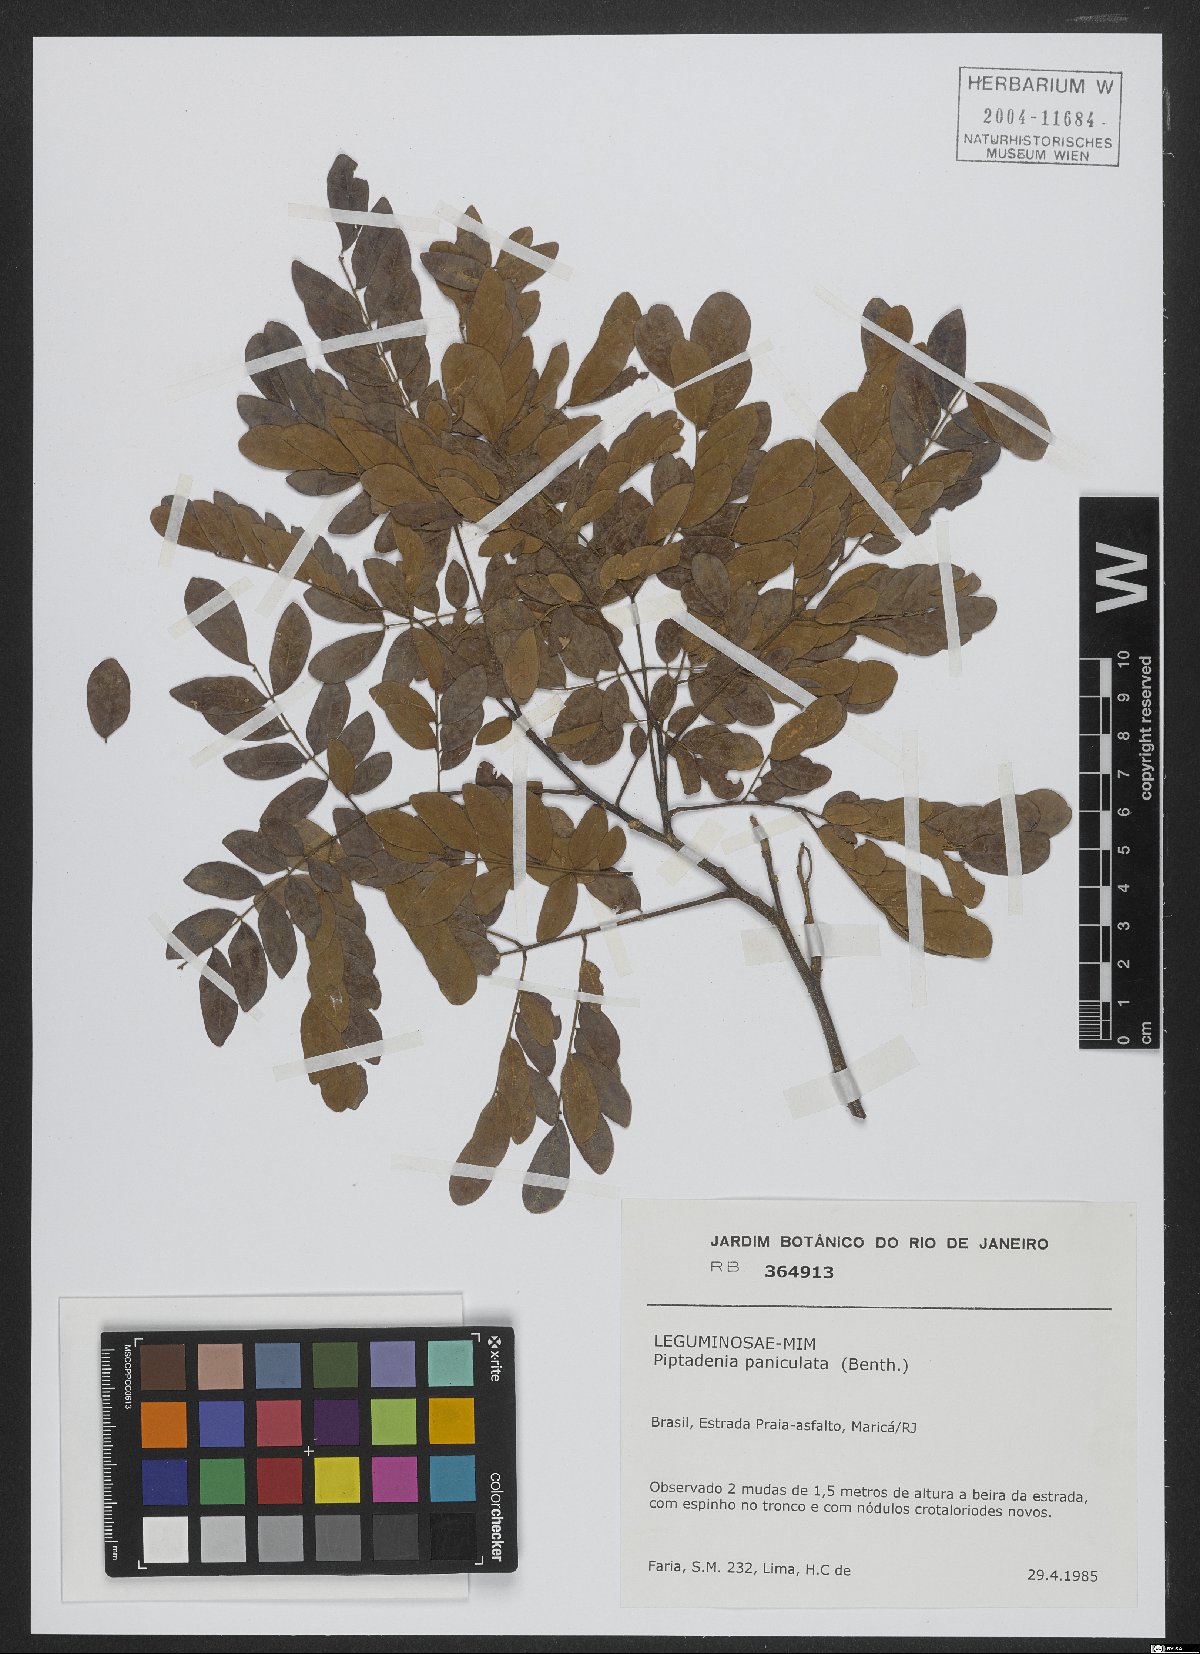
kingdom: Plantae
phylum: Tracheophyta
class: Magnoliopsida
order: Fabales
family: Fabaceae
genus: Piptadenia
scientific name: Piptadenia paniculata
